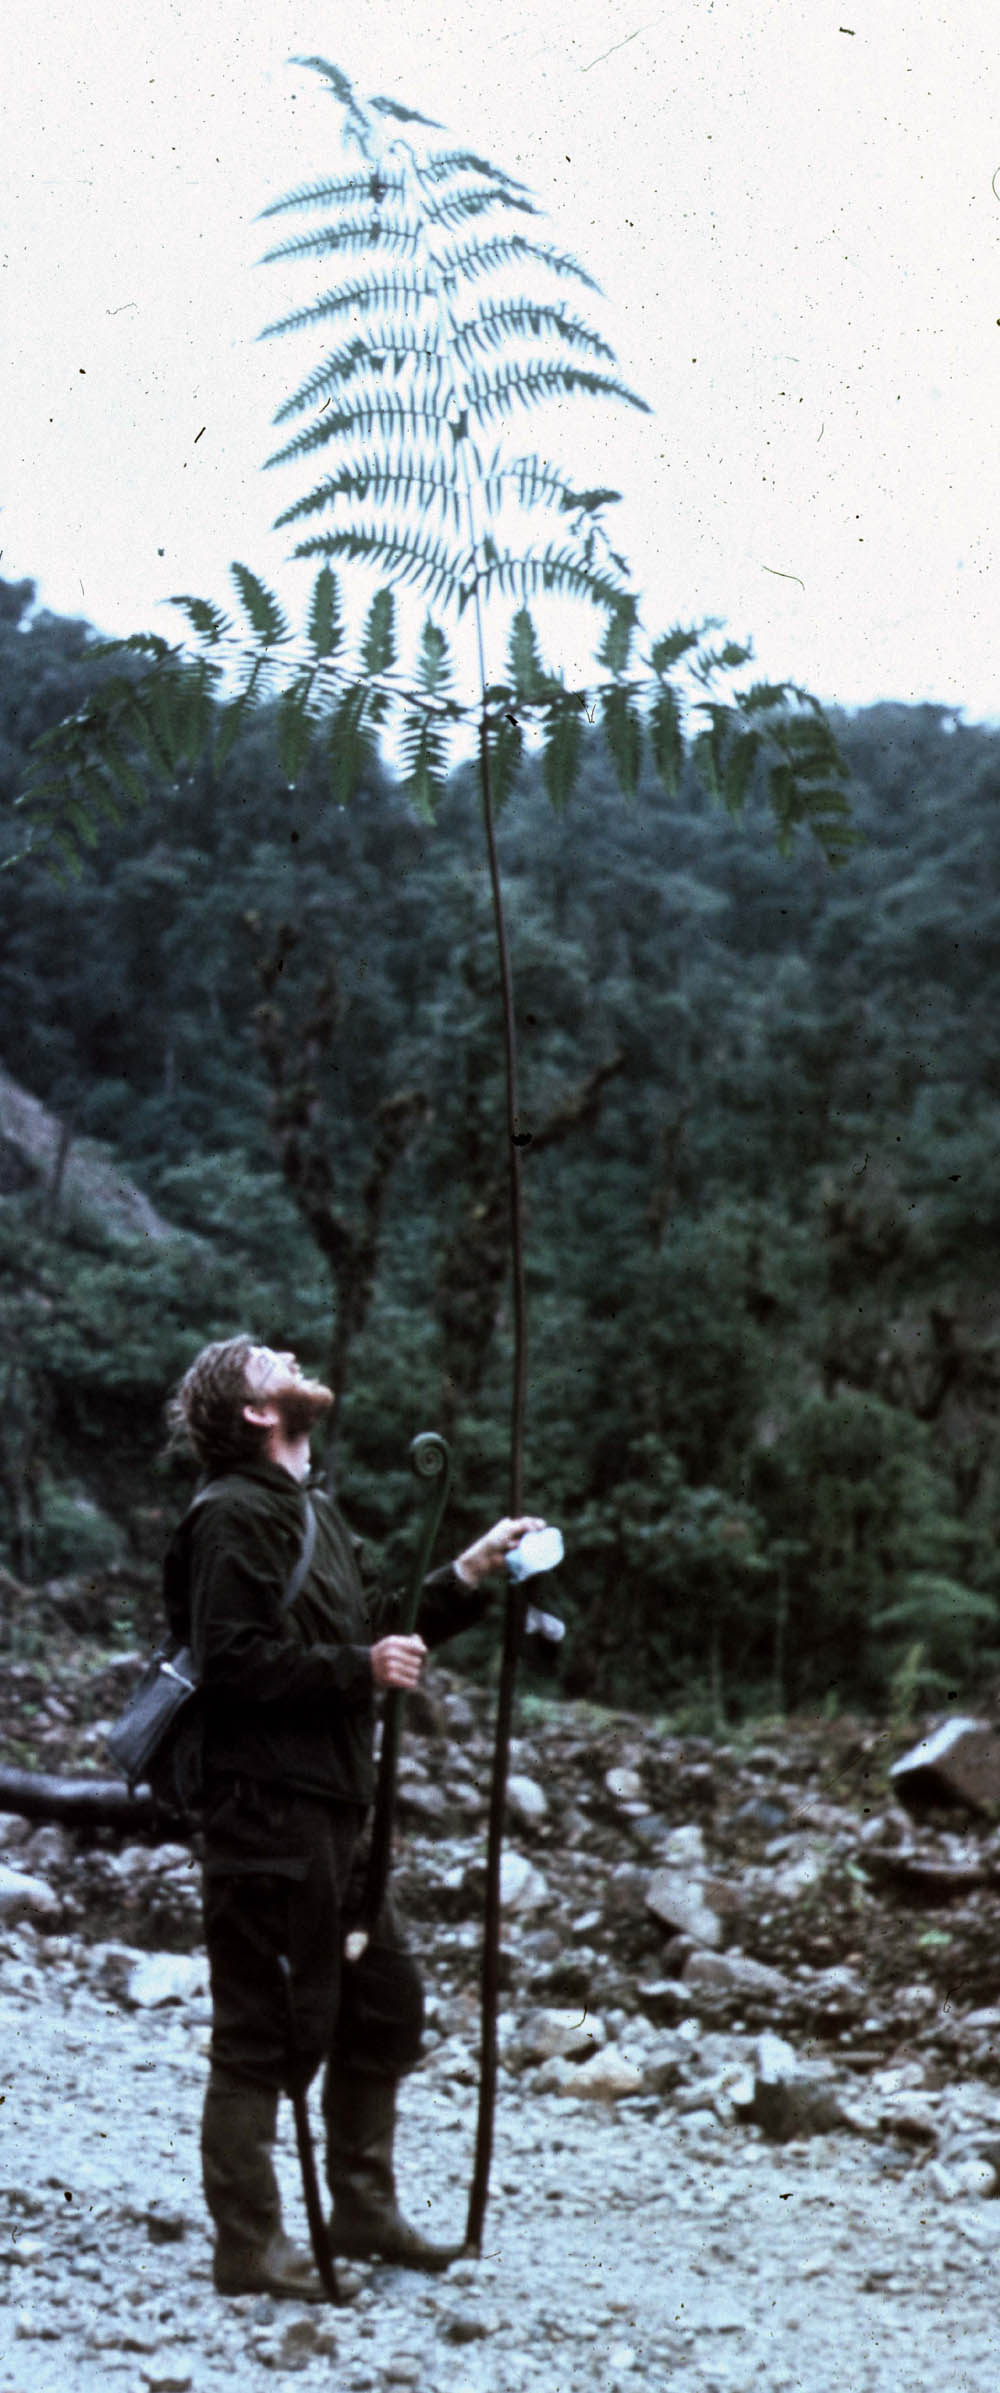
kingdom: Plantae
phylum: Tracheophyta
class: Polypodiopsida
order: Polypodiales
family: Pteridaceae
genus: Pteris
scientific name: Pteris livida
